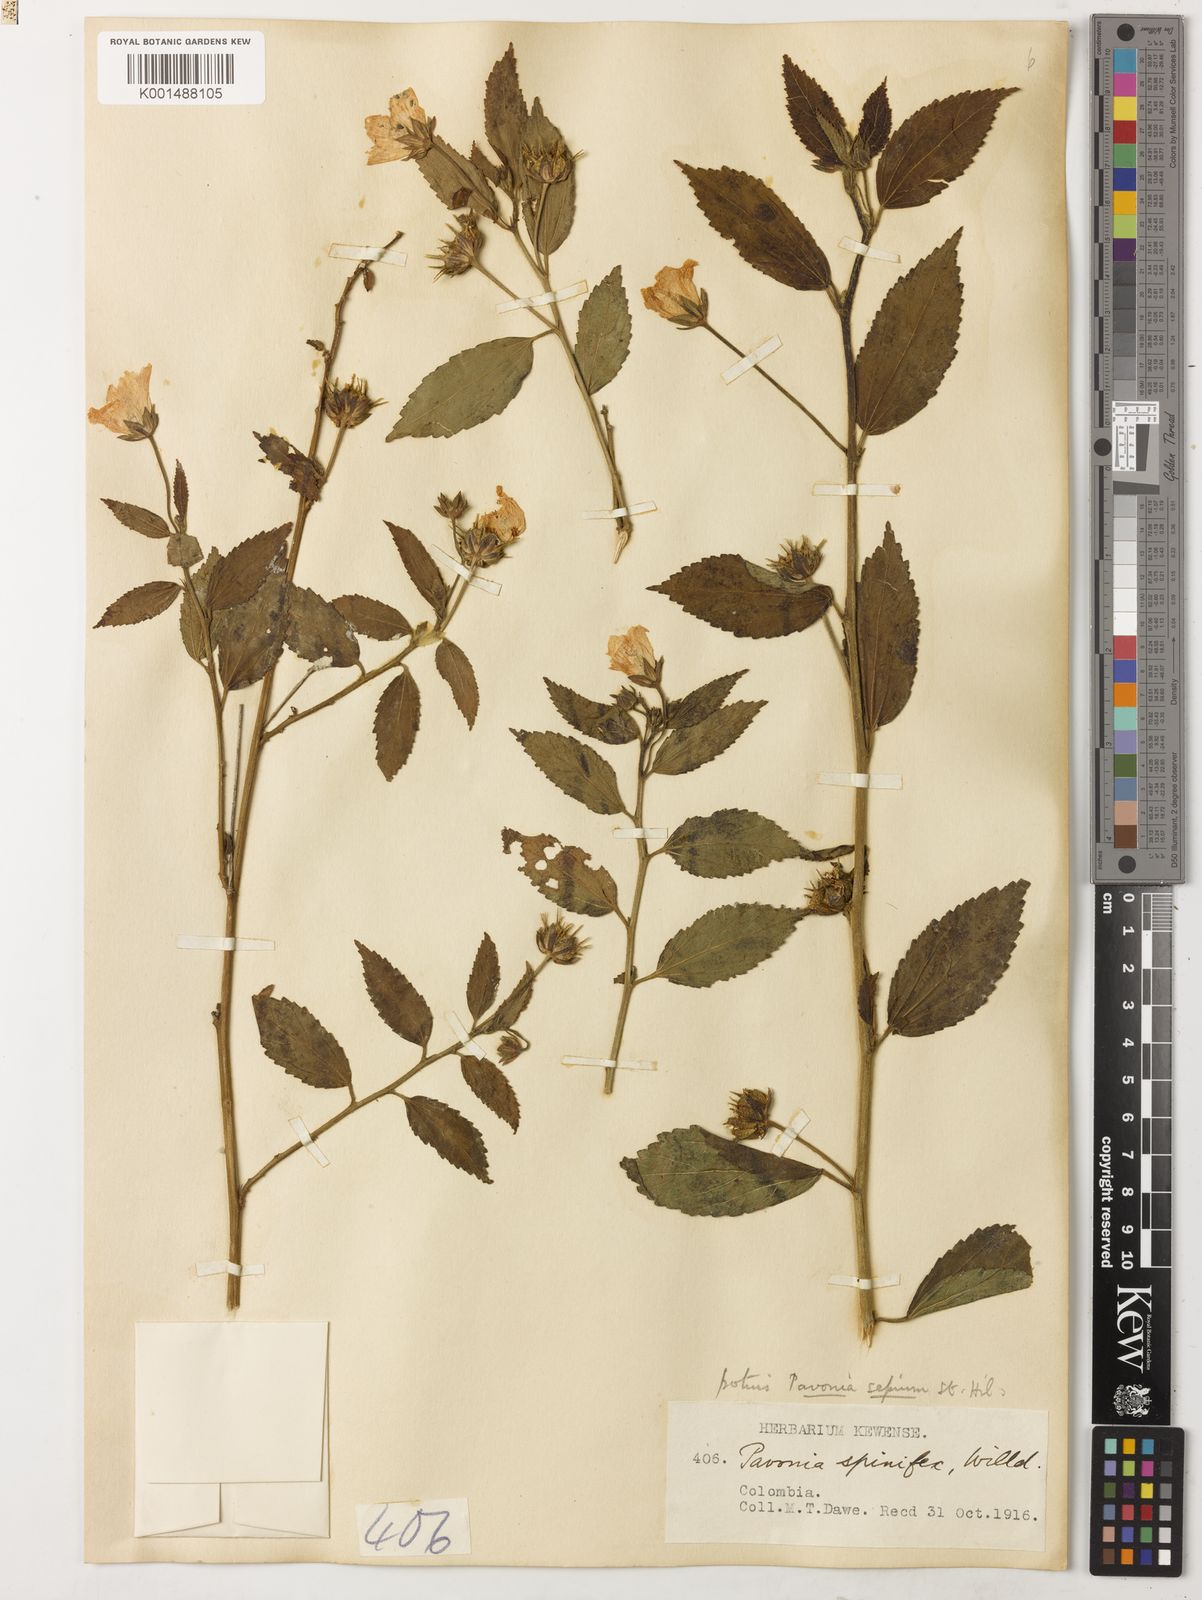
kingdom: Plantae
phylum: Tracheophyta
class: Magnoliopsida
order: Malvales
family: Malvaceae
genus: Pavonia
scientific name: Pavonia sepium
